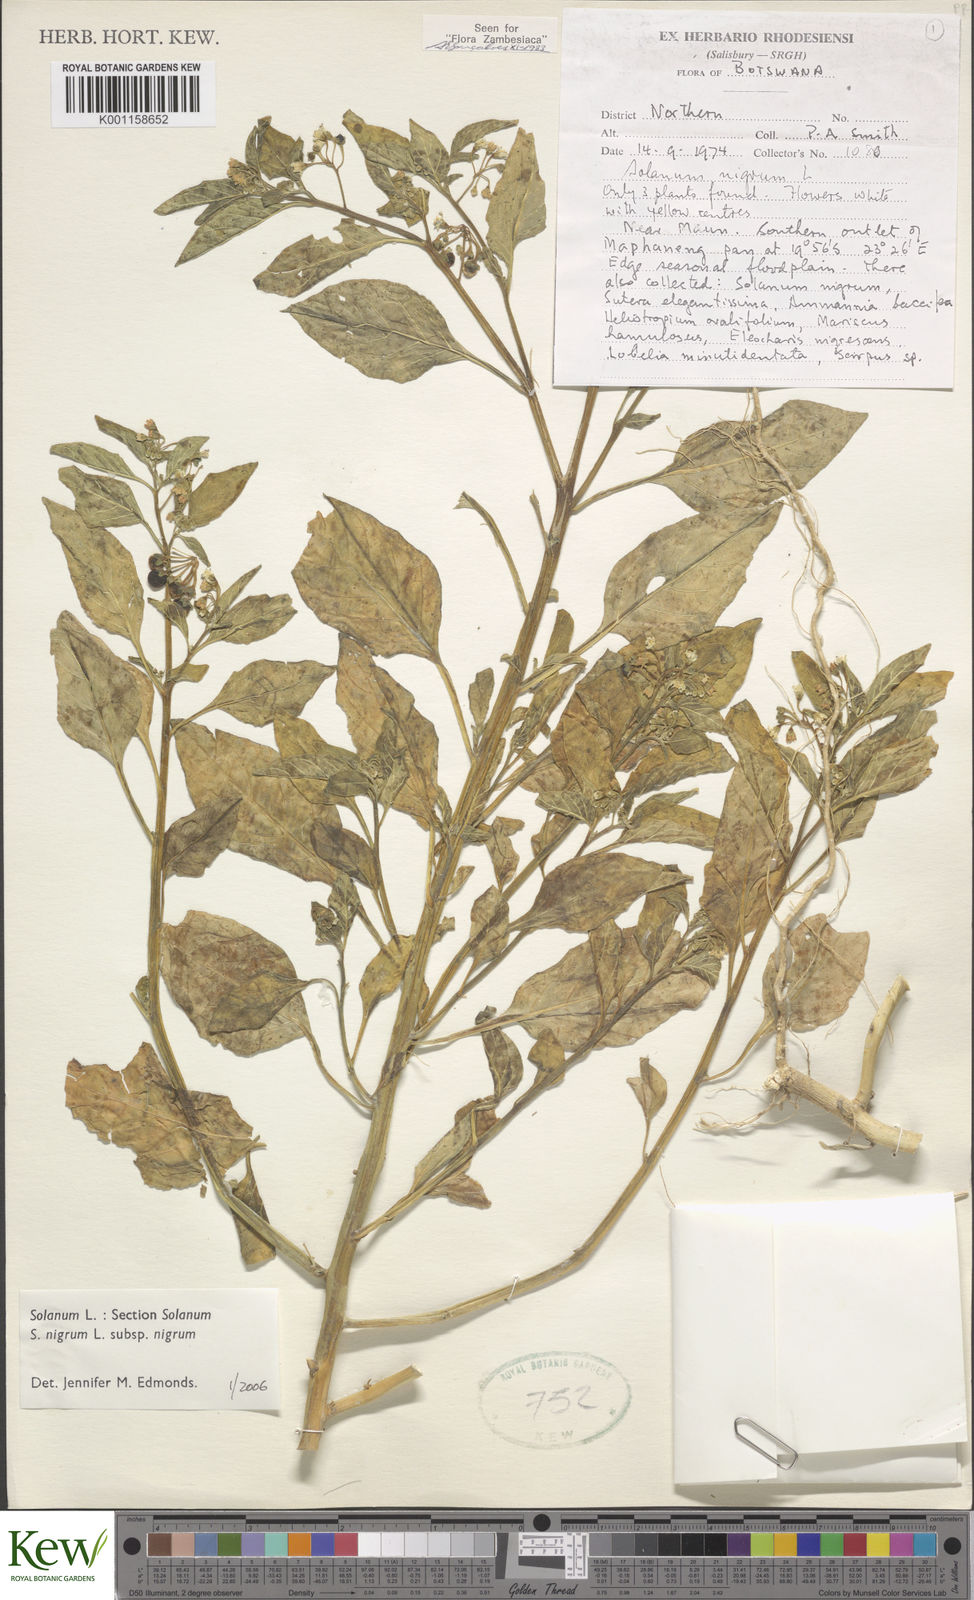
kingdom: Plantae
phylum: Tracheophyta
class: Magnoliopsida
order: Solanales
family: Solanaceae
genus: Solanum
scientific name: Solanum nigrum
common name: Black nightshade
